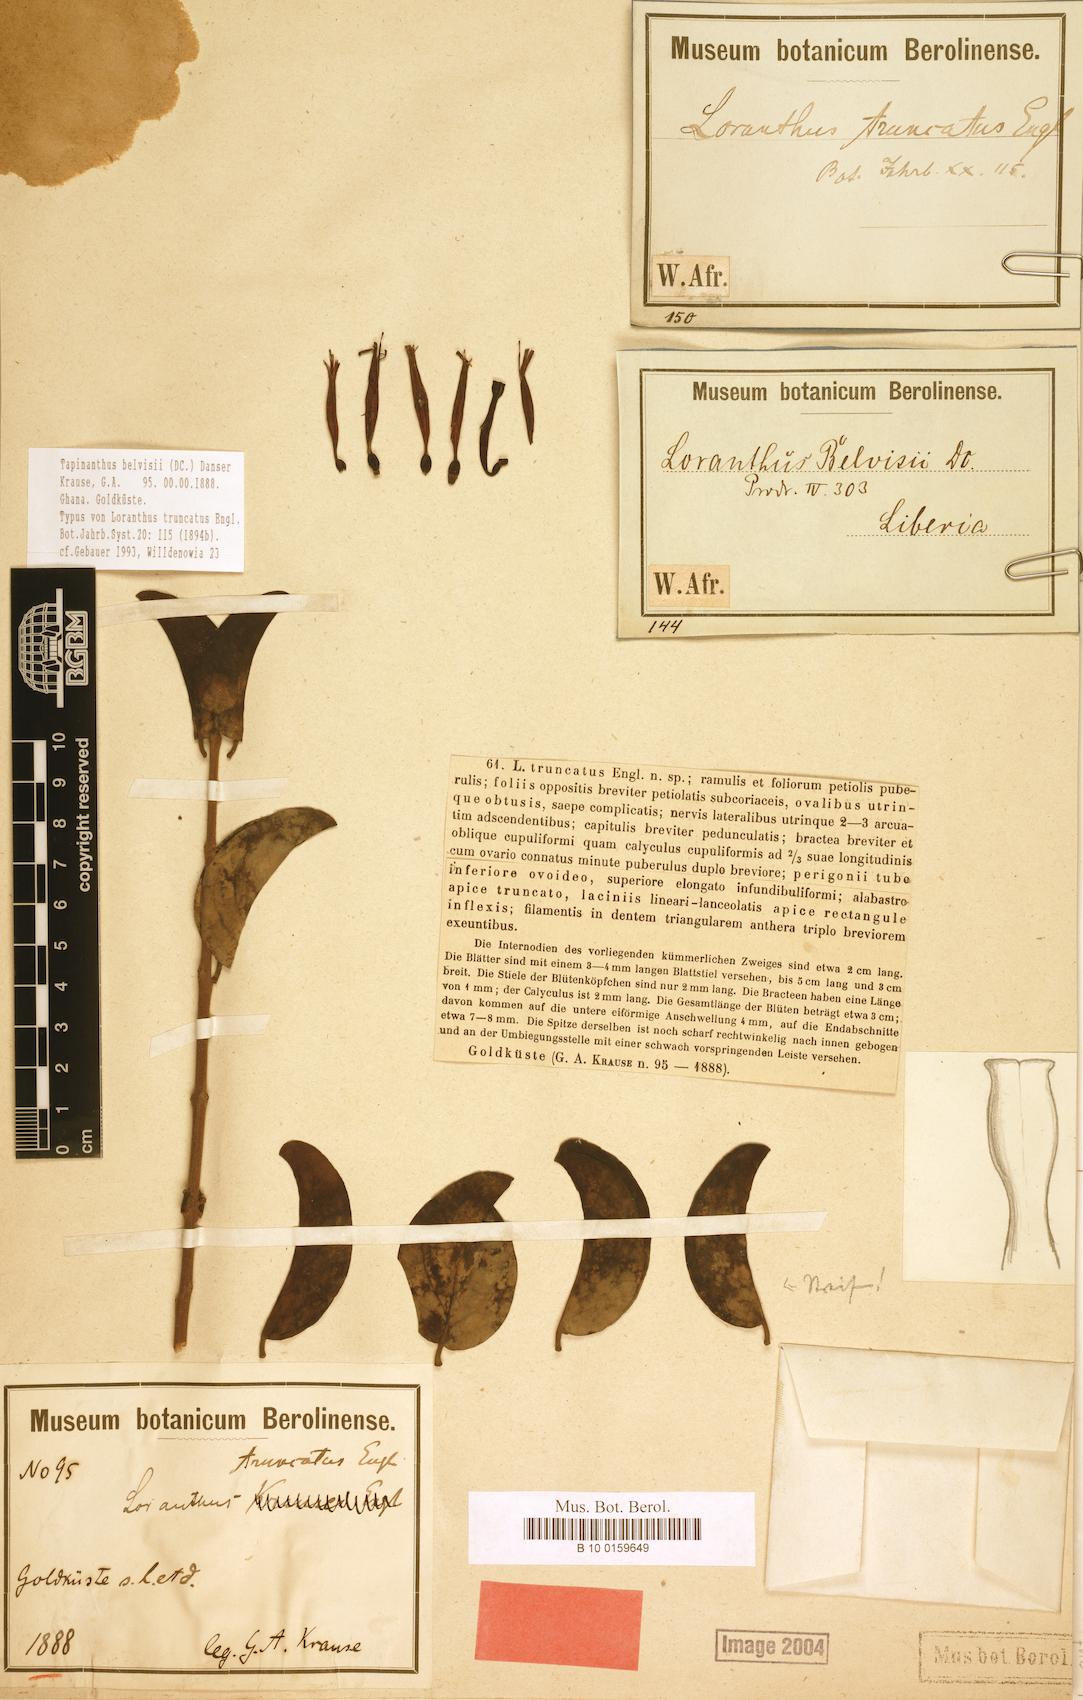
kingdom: Plantae
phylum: Tracheophyta
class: Magnoliopsida
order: Santalales
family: Loranthaceae
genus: Tapinanthus
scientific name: Tapinanthus belvisii
